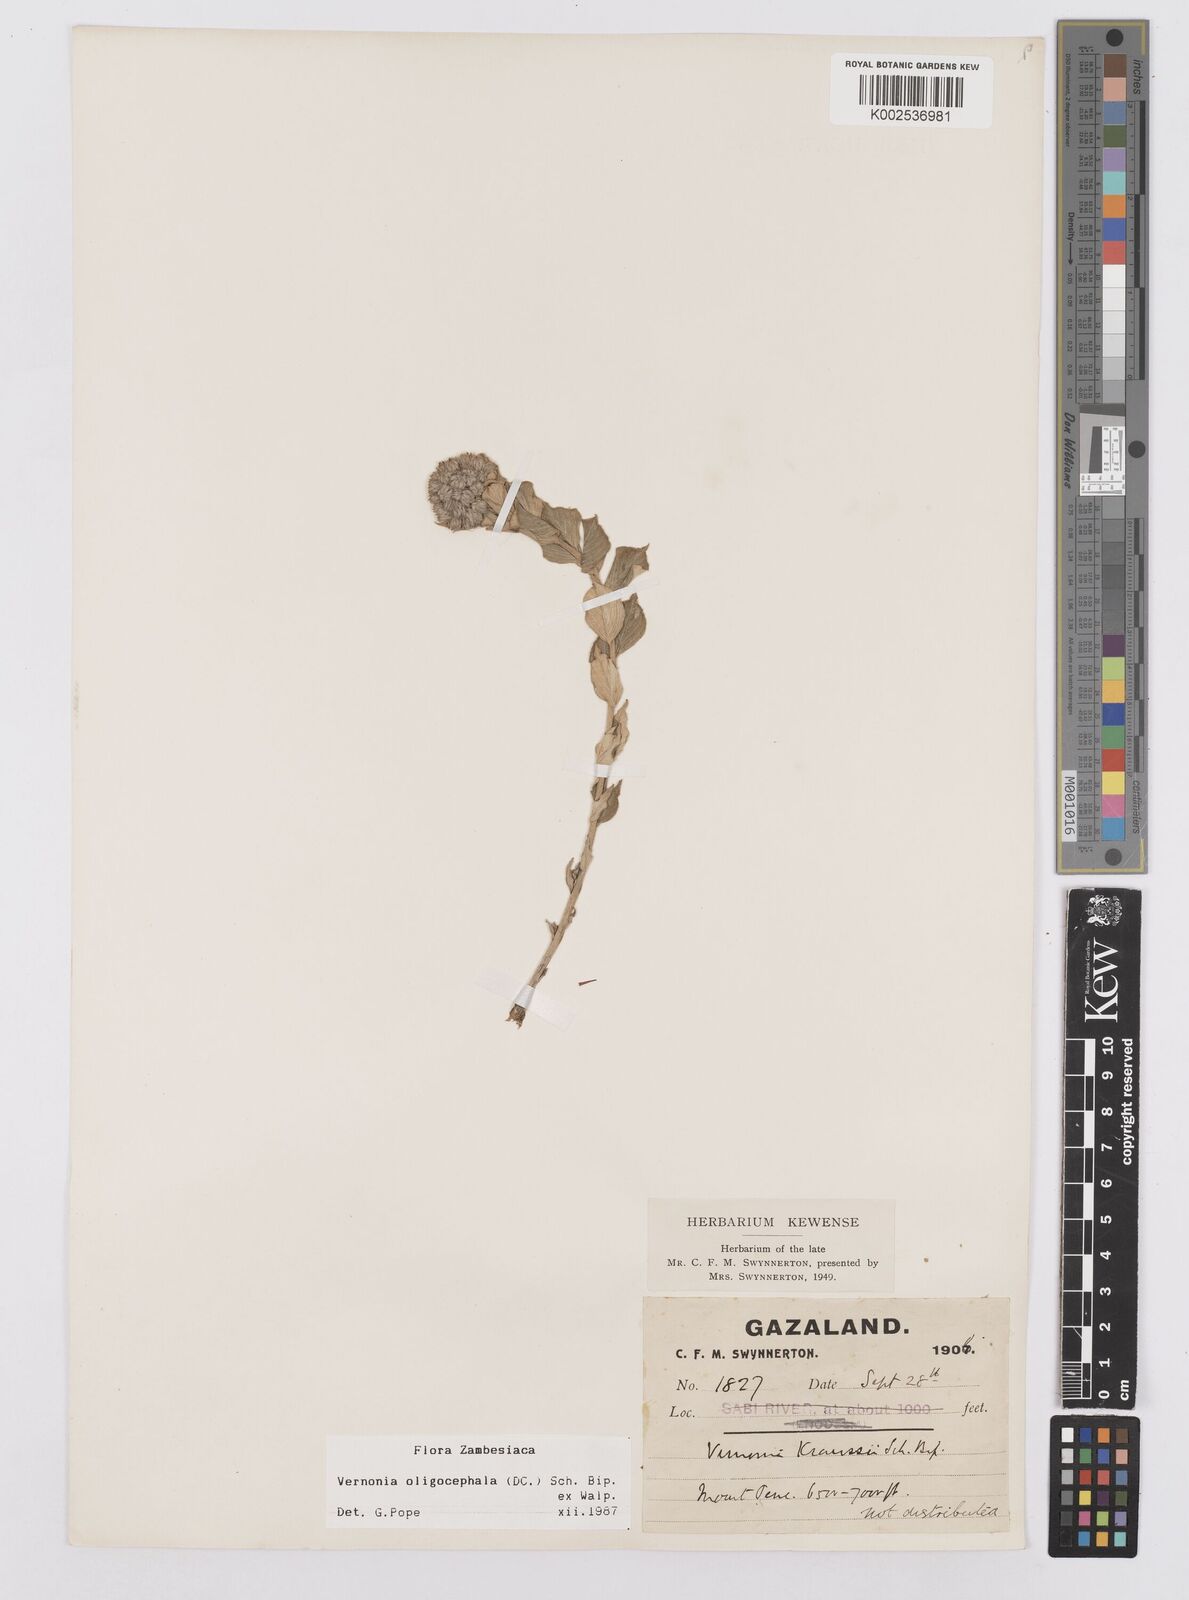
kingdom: Plantae
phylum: Tracheophyta
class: Magnoliopsida
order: Asterales
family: Asteraceae
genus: Hilliardiella
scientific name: Hilliardiella oligocephala
